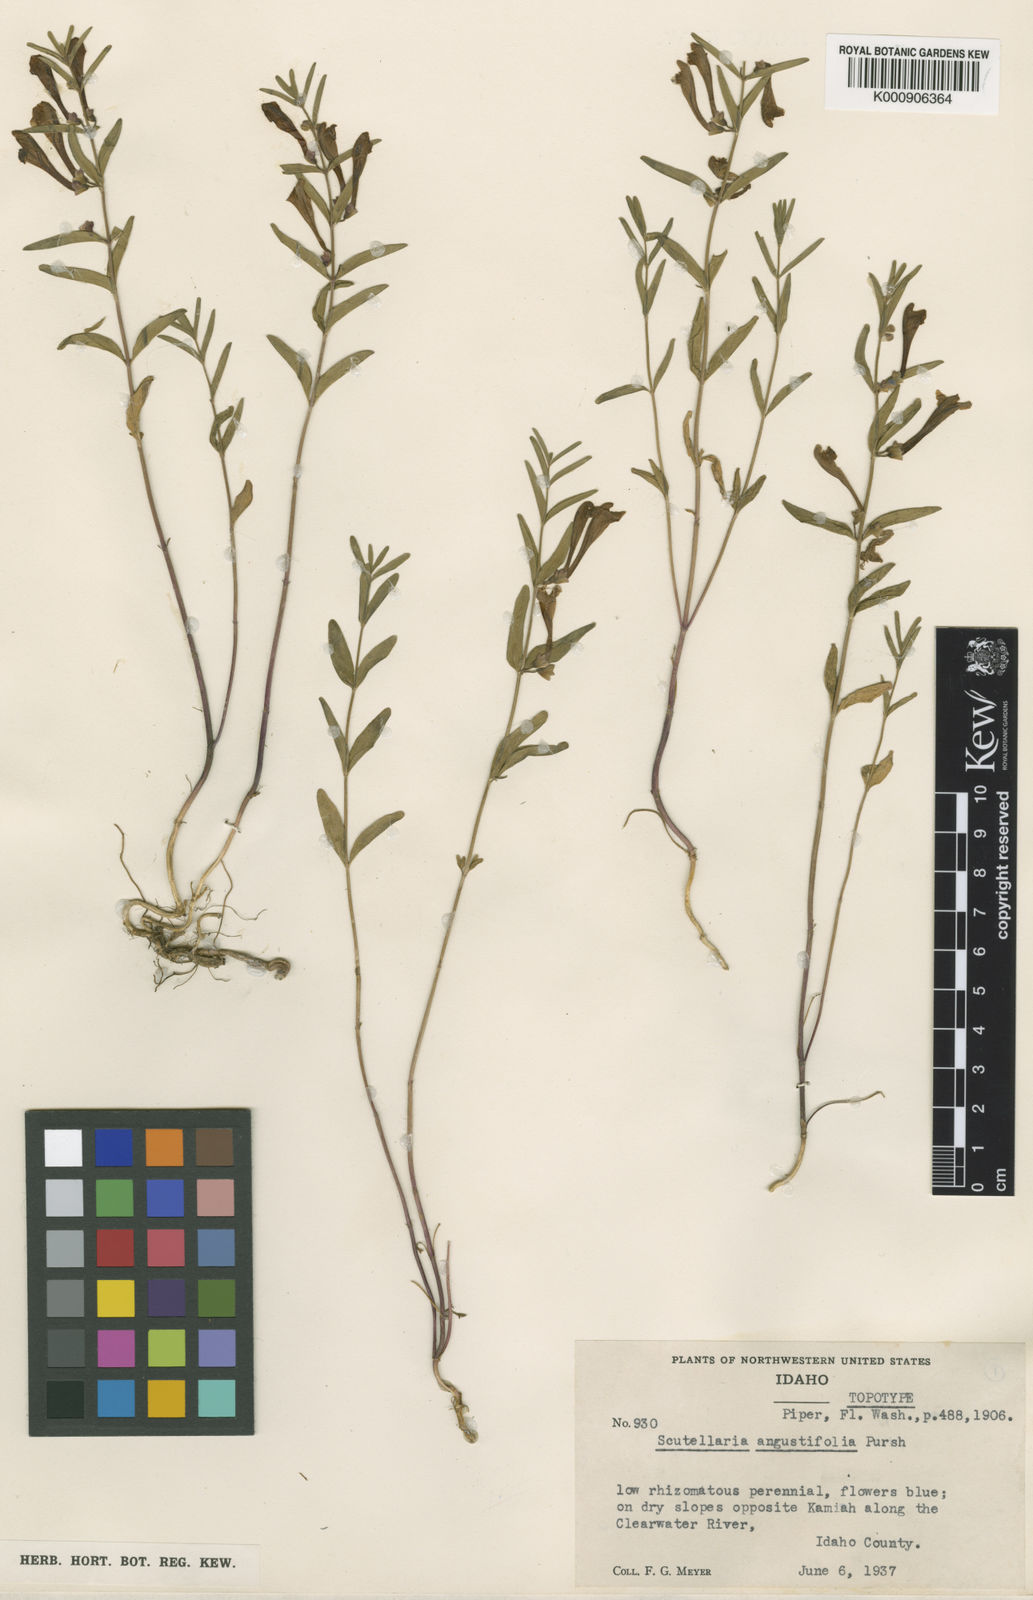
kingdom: Plantae
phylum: Tracheophyta
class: Magnoliopsida
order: Lamiales
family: Lamiaceae
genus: Scutellaria
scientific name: Scutellaria angustifolia
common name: Narrow-leaved skullcap
